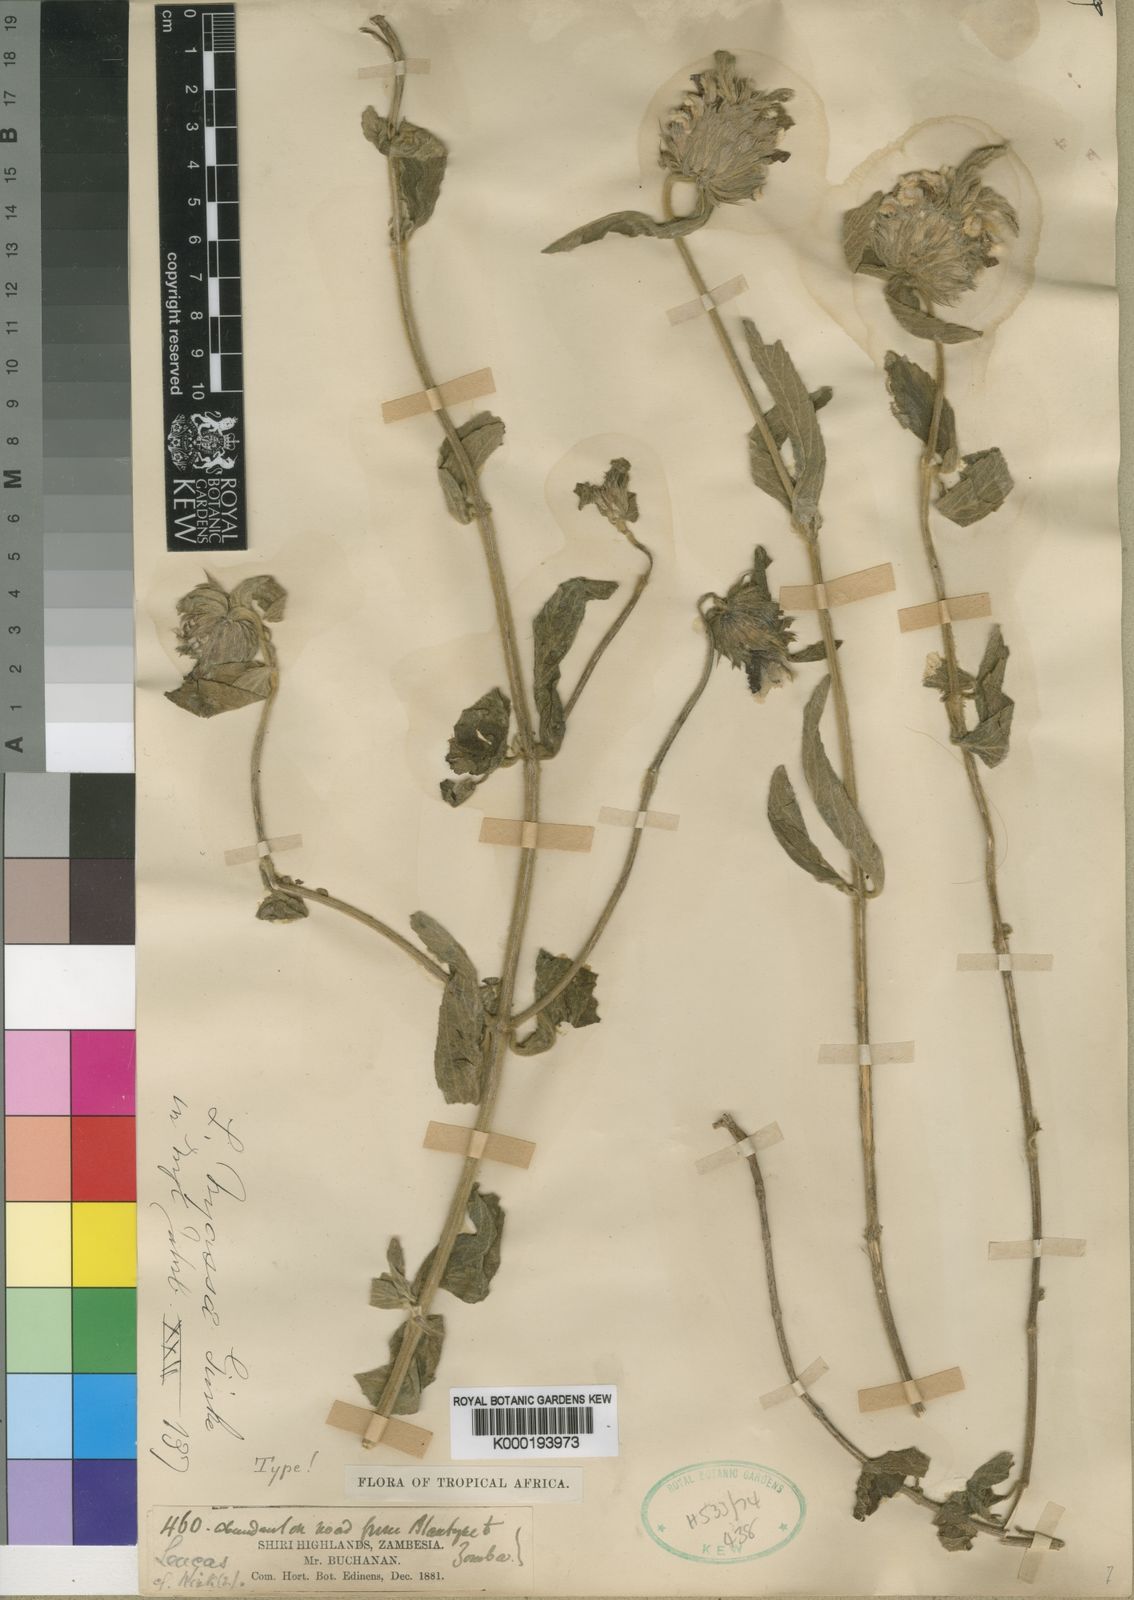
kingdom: Plantae
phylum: Tracheophyta
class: Magnoliopsida
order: Lamiales
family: Lamiaceae
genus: Leucas
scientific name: Leucas
